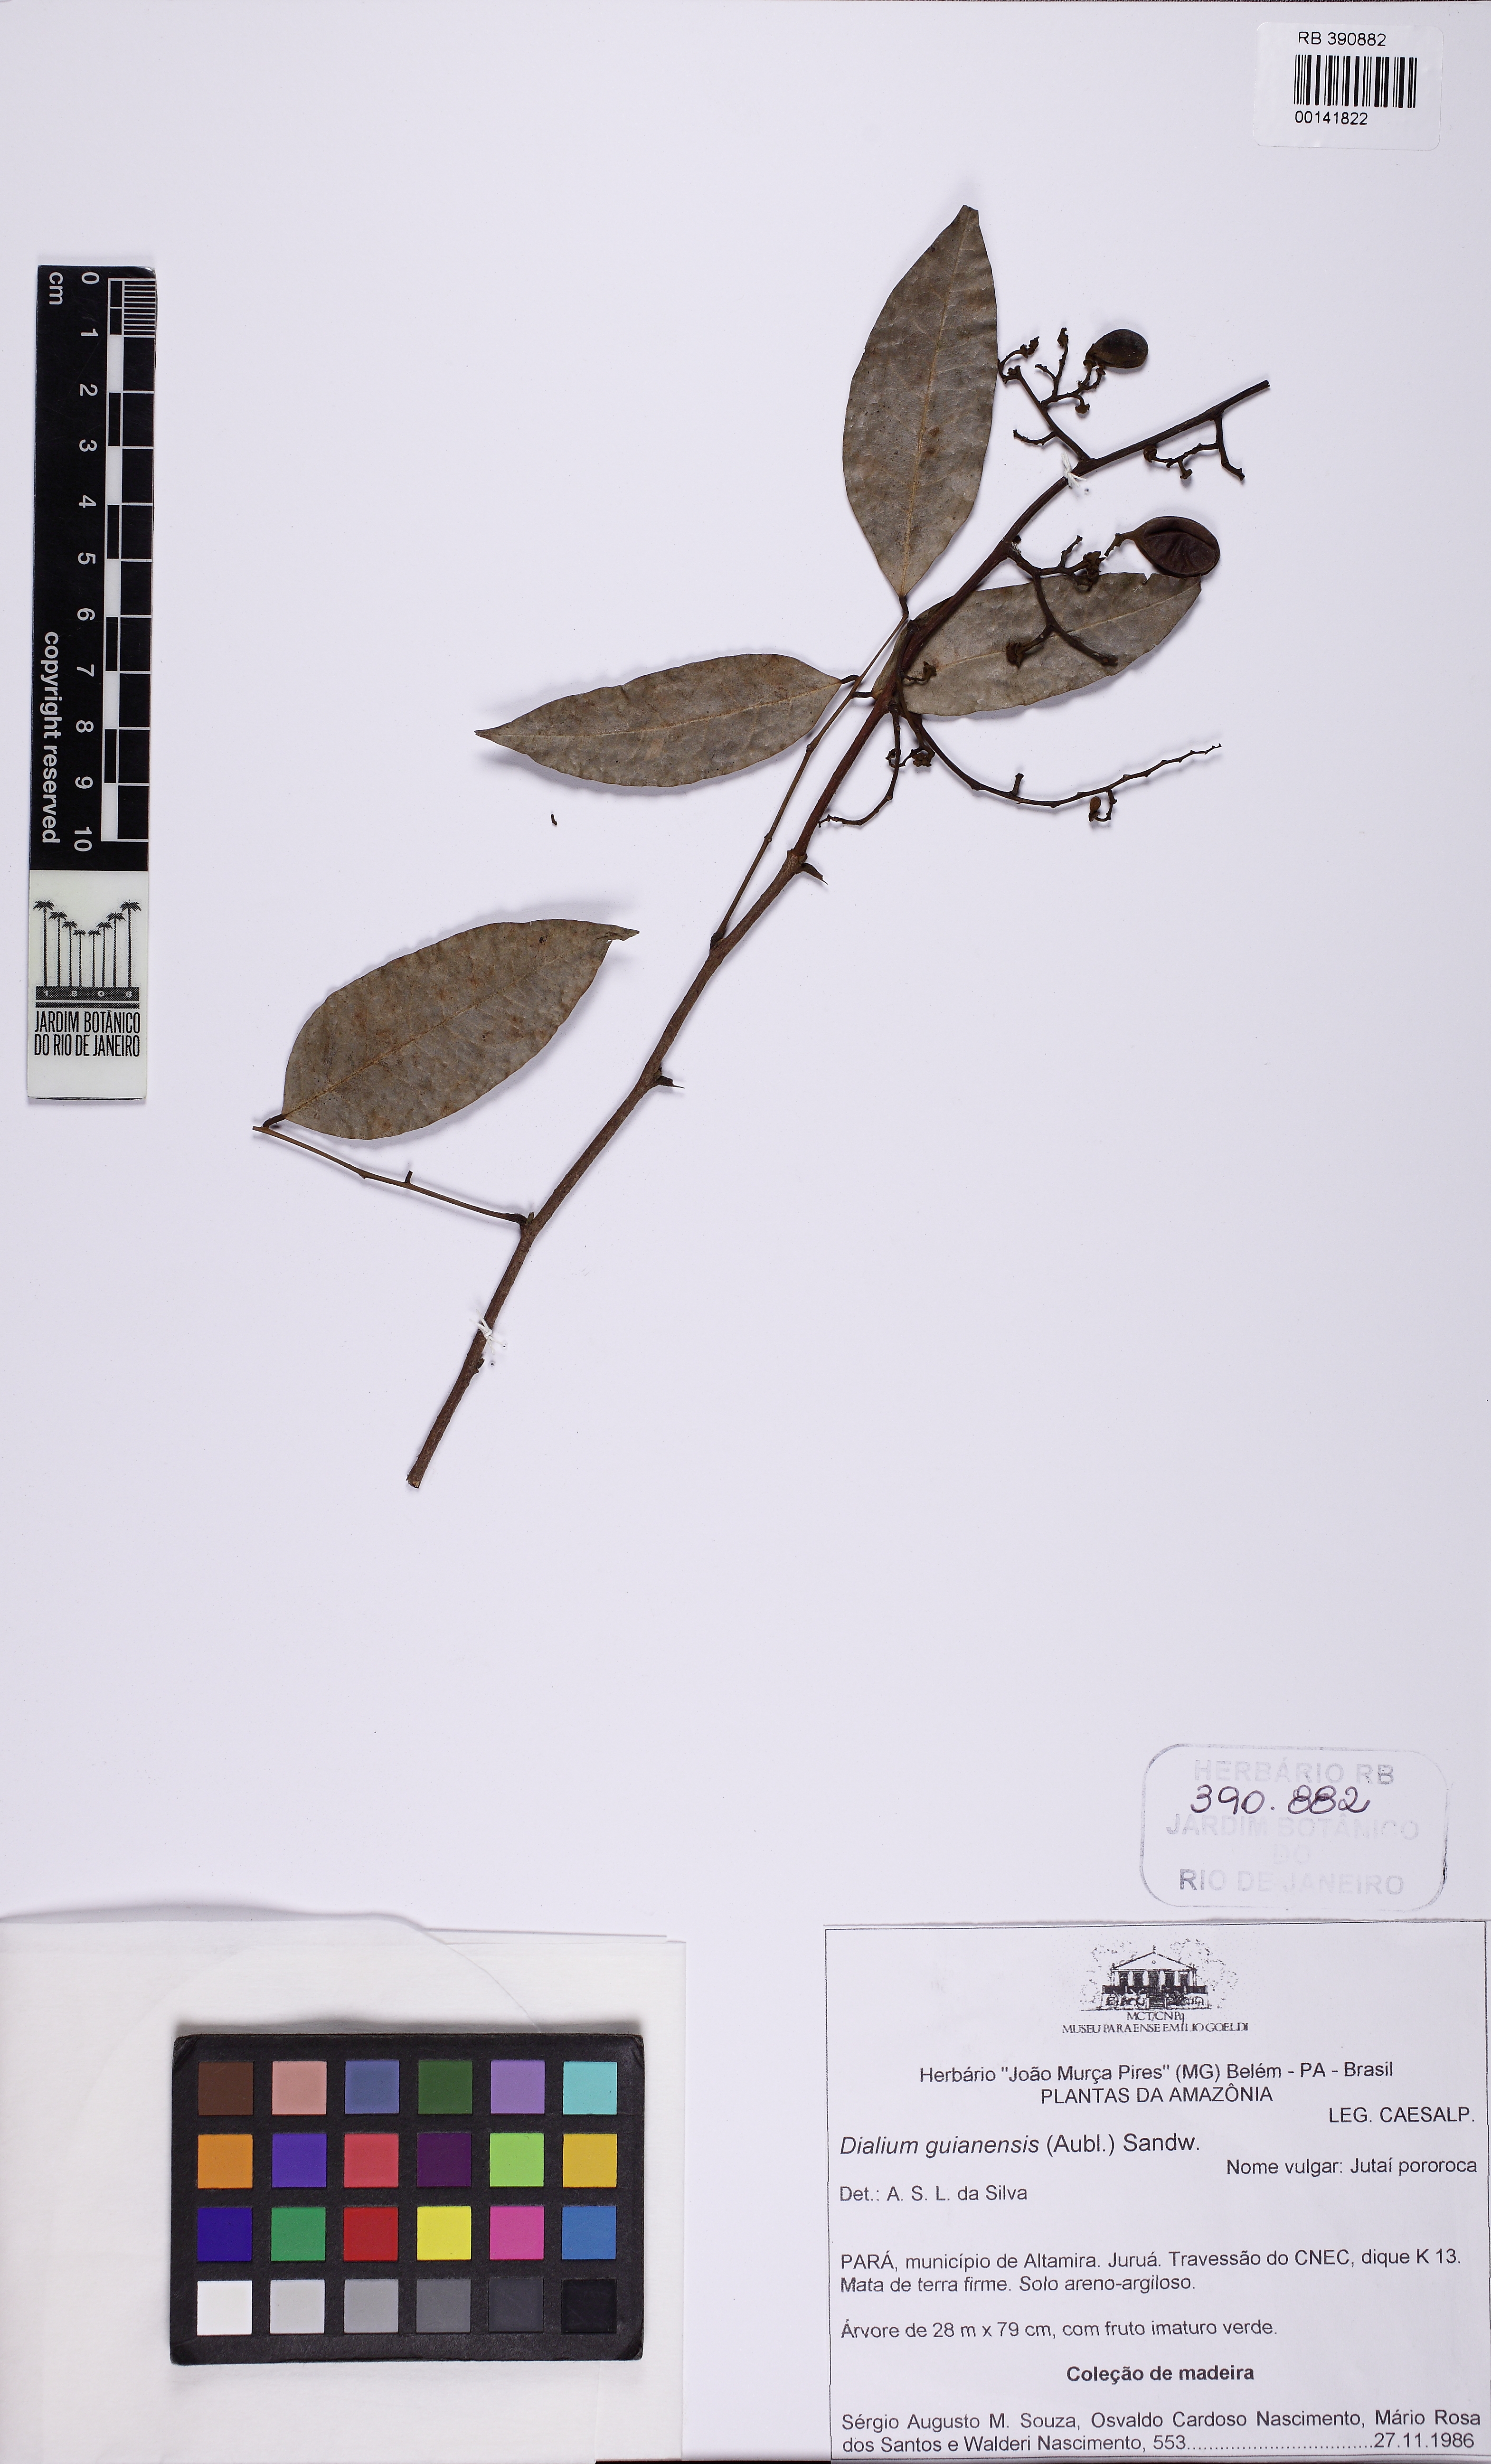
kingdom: Plantae
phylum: Tracheophyta
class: Magnoliopsida
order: Fabales
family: Fabaceae
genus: Dialium
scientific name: Dialium guianense
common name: Ironwood
